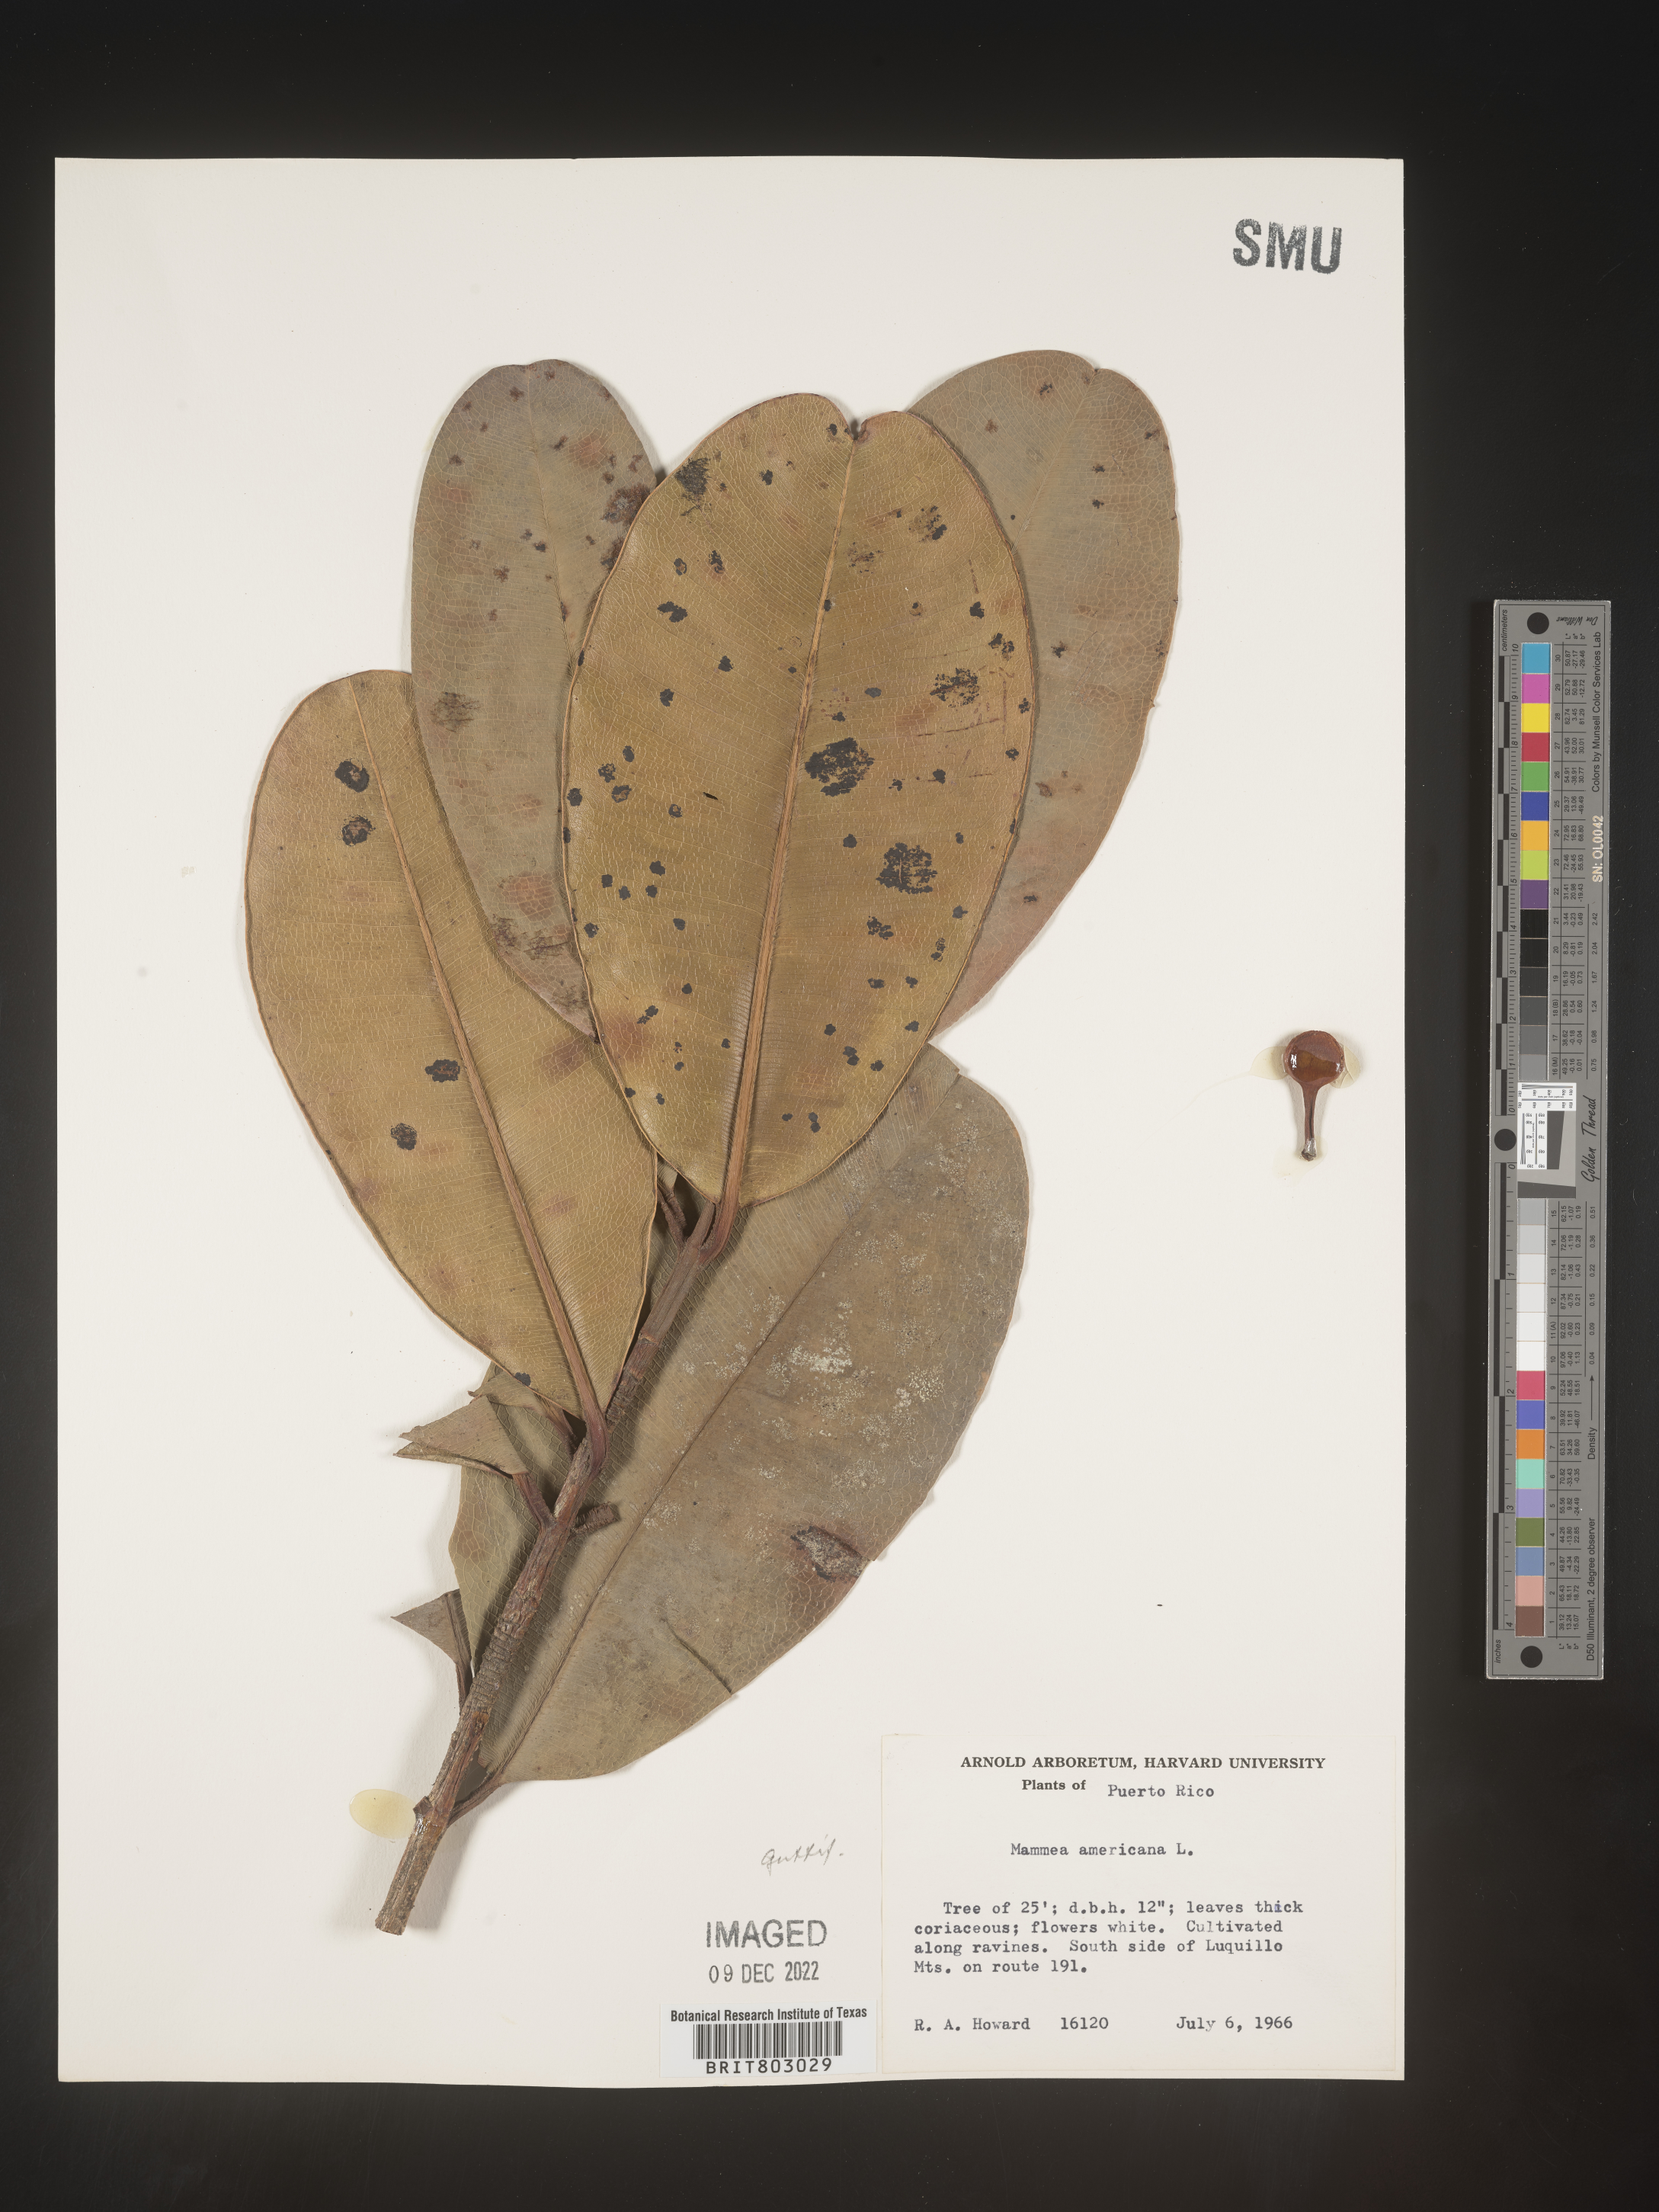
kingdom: Plantae
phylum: Tracheophyta
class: Magnoliopsida
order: Malpighiales
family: Calophyllaceae
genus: Mammea
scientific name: Mammea
